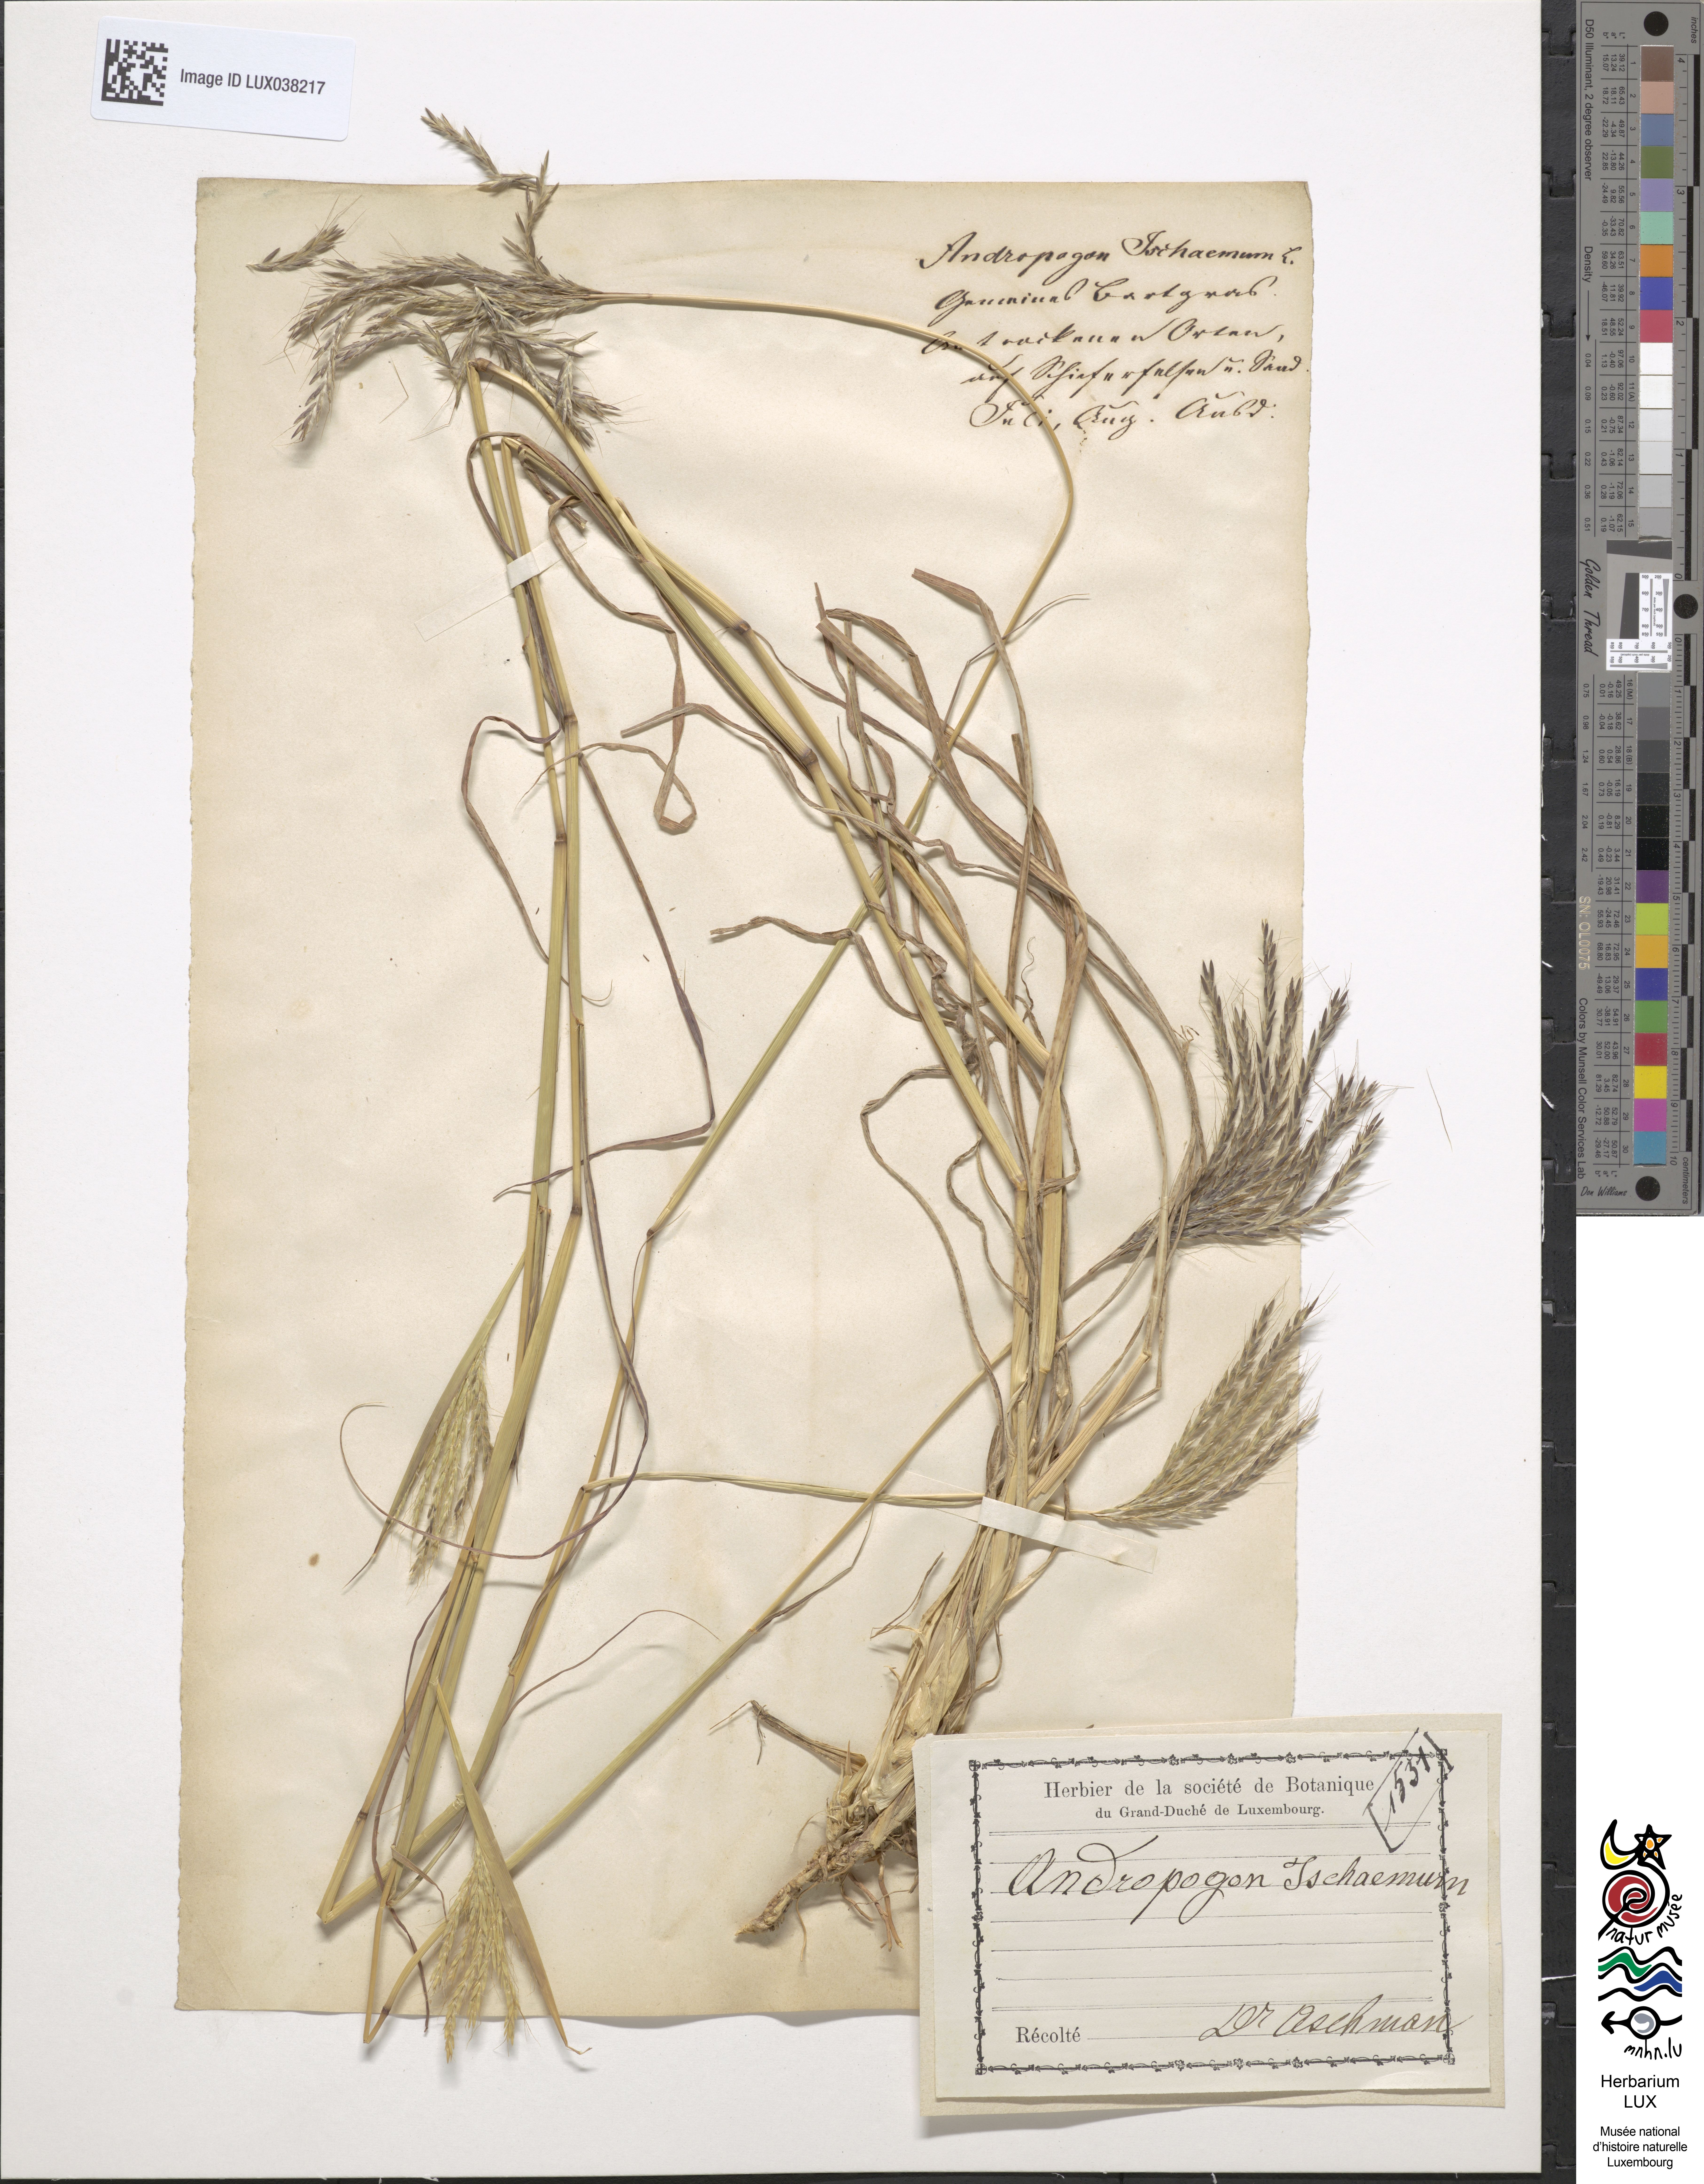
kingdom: Plantae
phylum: Tracheophyta
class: Liliopsida
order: Poales
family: Poaceae
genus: Bothriochloa
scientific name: Bothriochloa ischaemum
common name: Yellow bluestem
